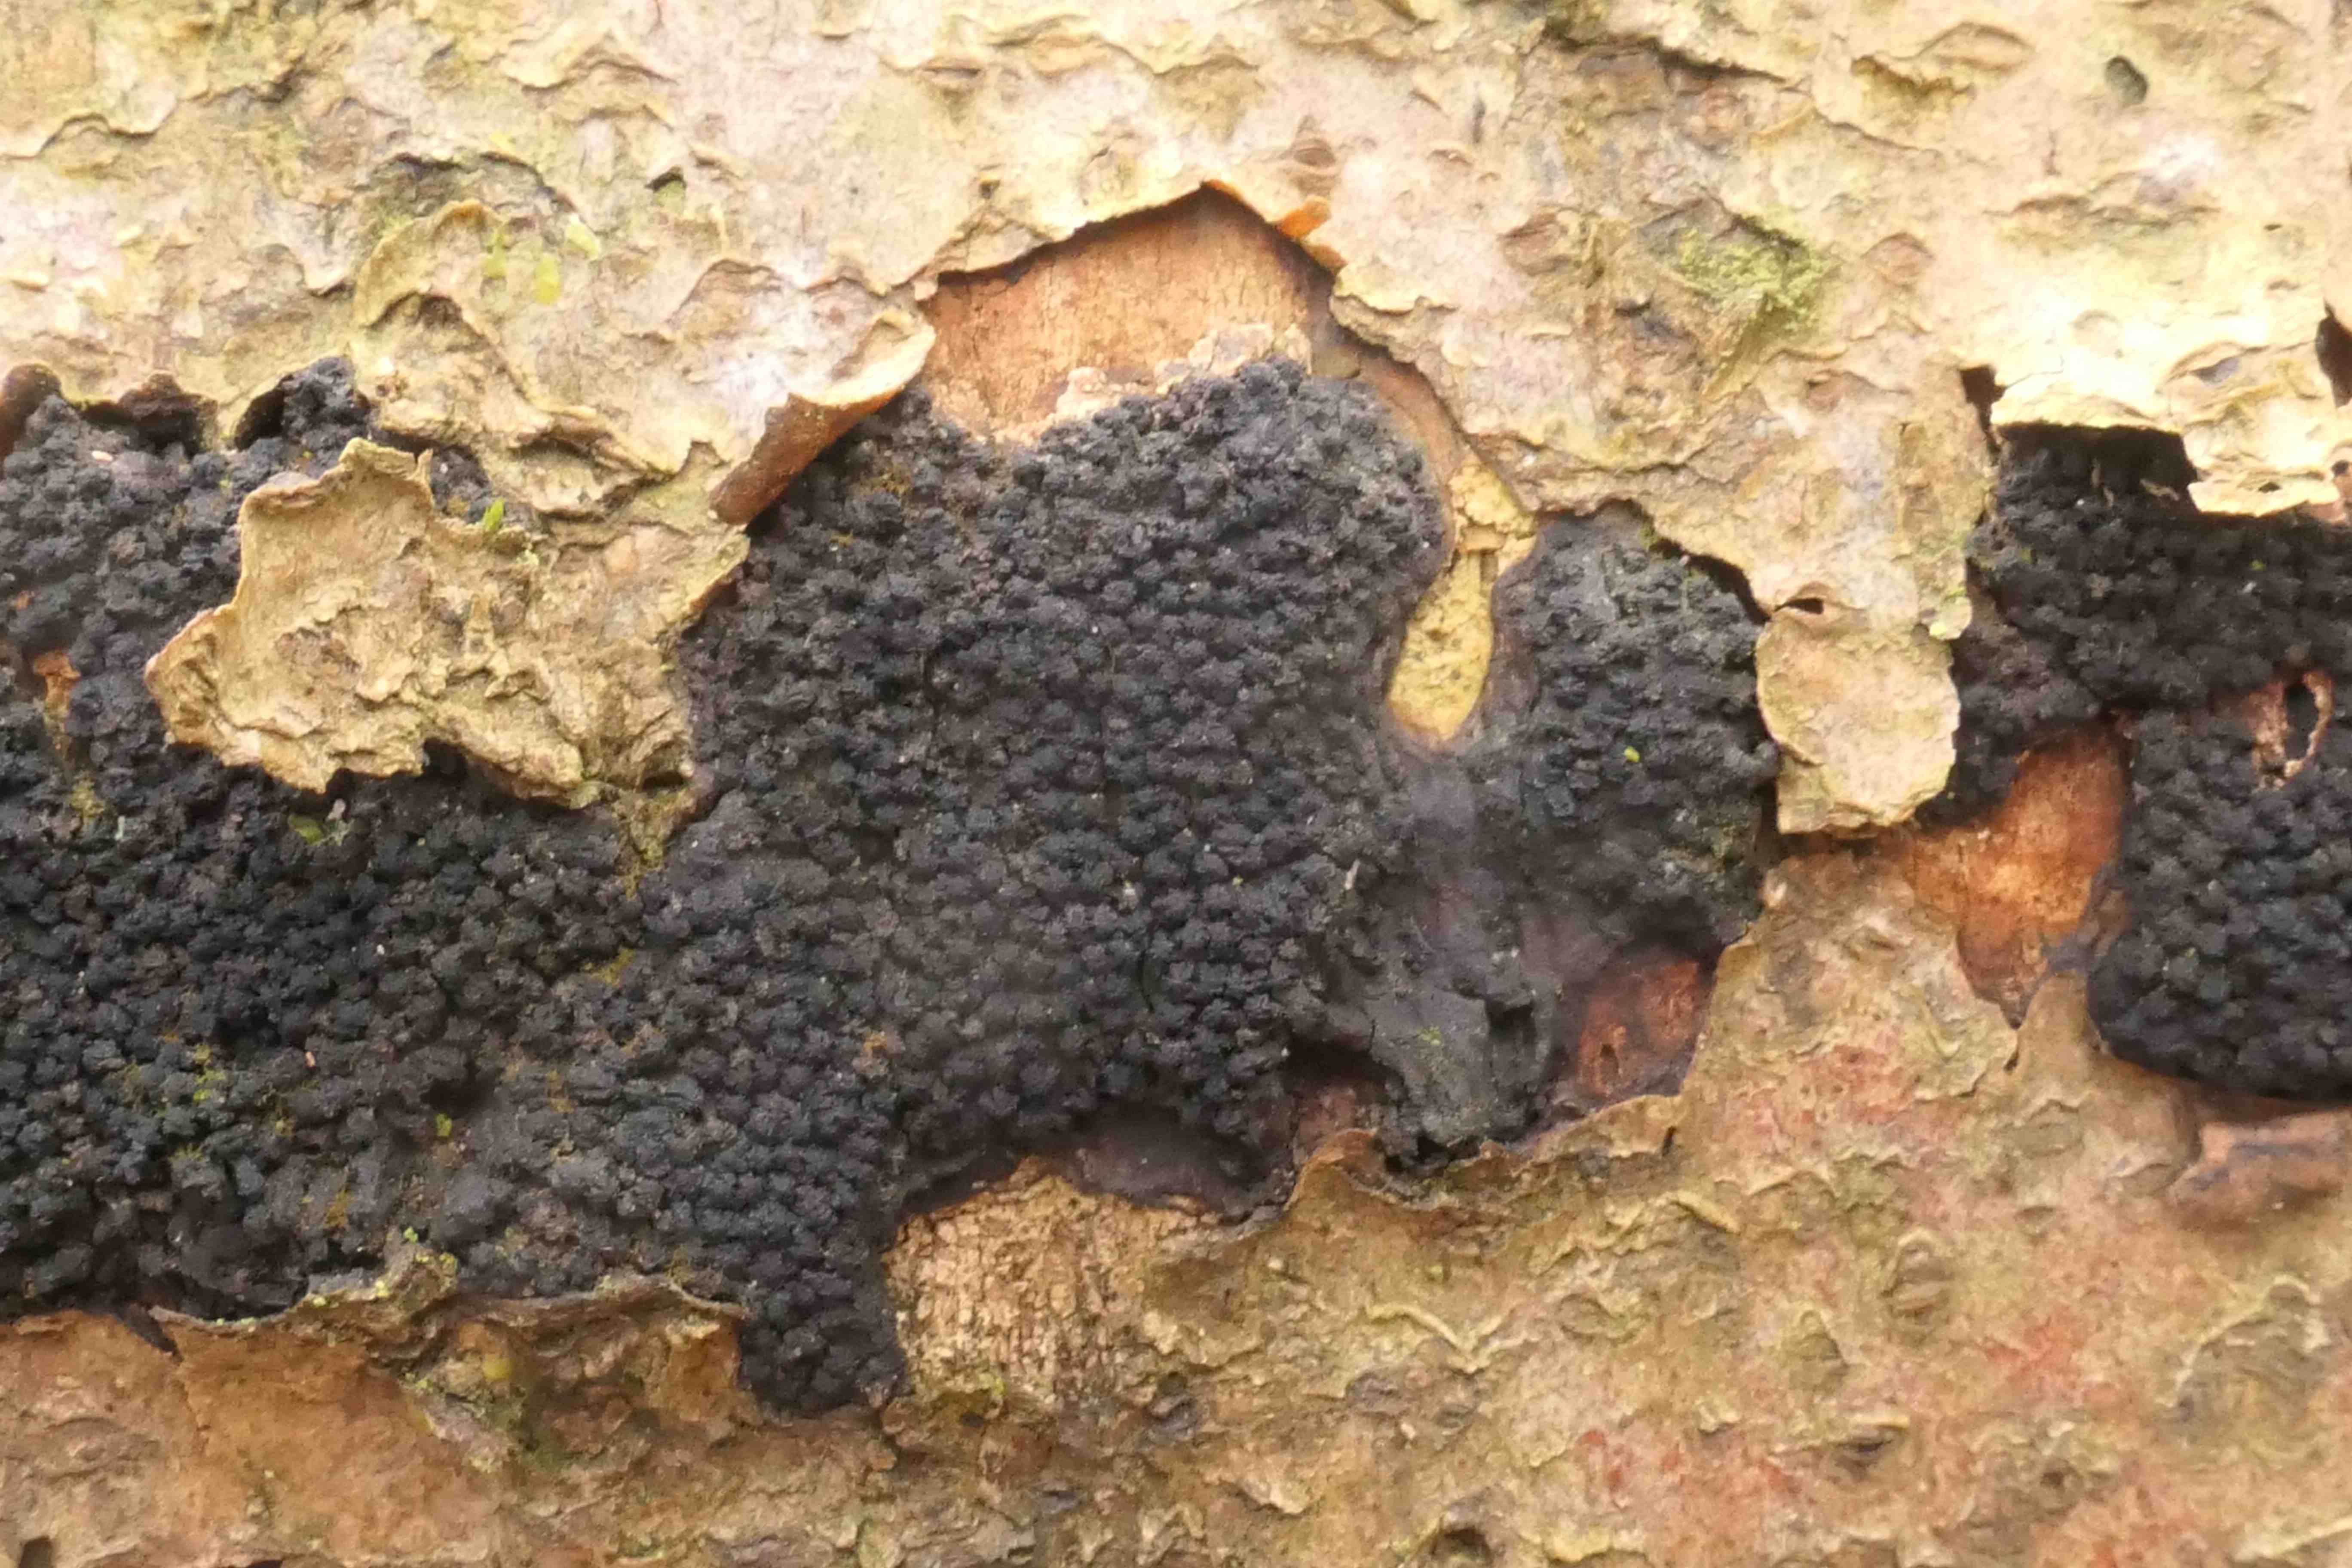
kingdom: Fungi
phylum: Ascomycota
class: Sordariomycetes
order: Xylariales
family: Diatrypaceae
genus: Eutypa
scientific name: Eutypa spinosa
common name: grov kulskorpe
